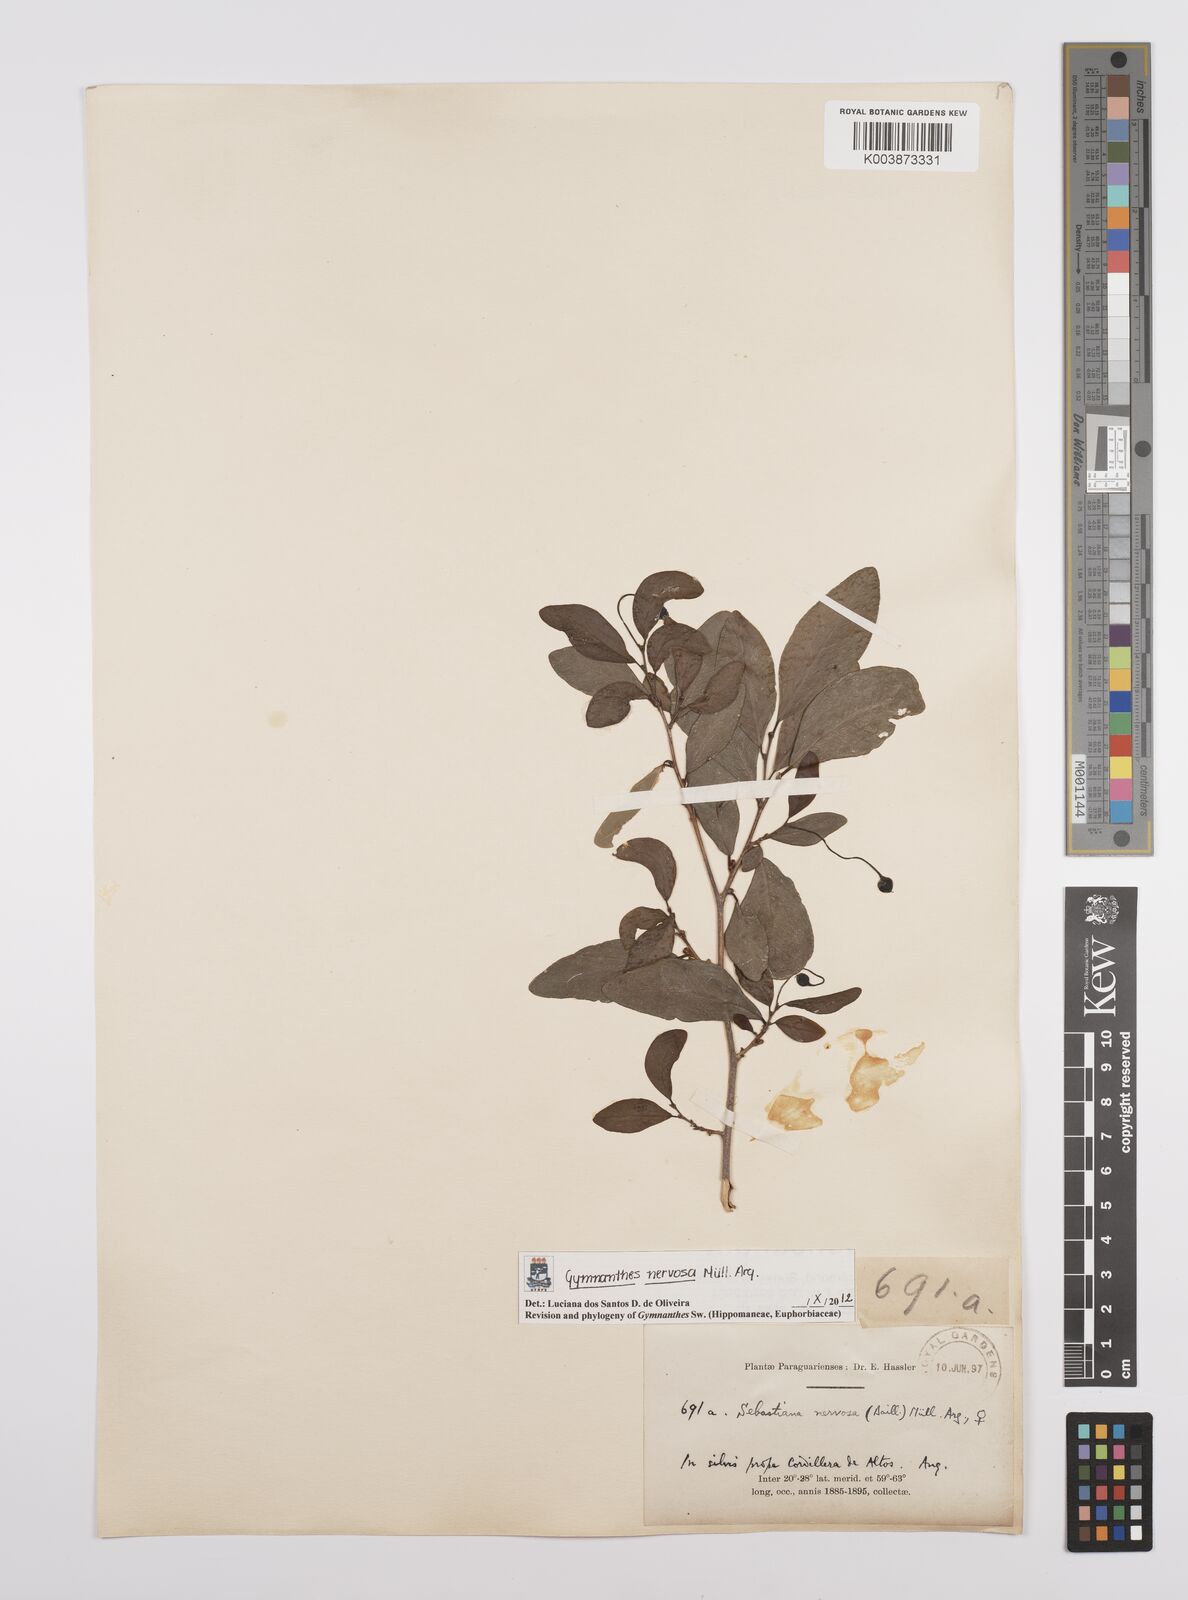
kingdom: Plantae
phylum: Tracheophyta
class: Magnoliopsida
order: Malpighiales
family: Euphorbiaceae
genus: Gymnanthes
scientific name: Gymnanthes nervosa
